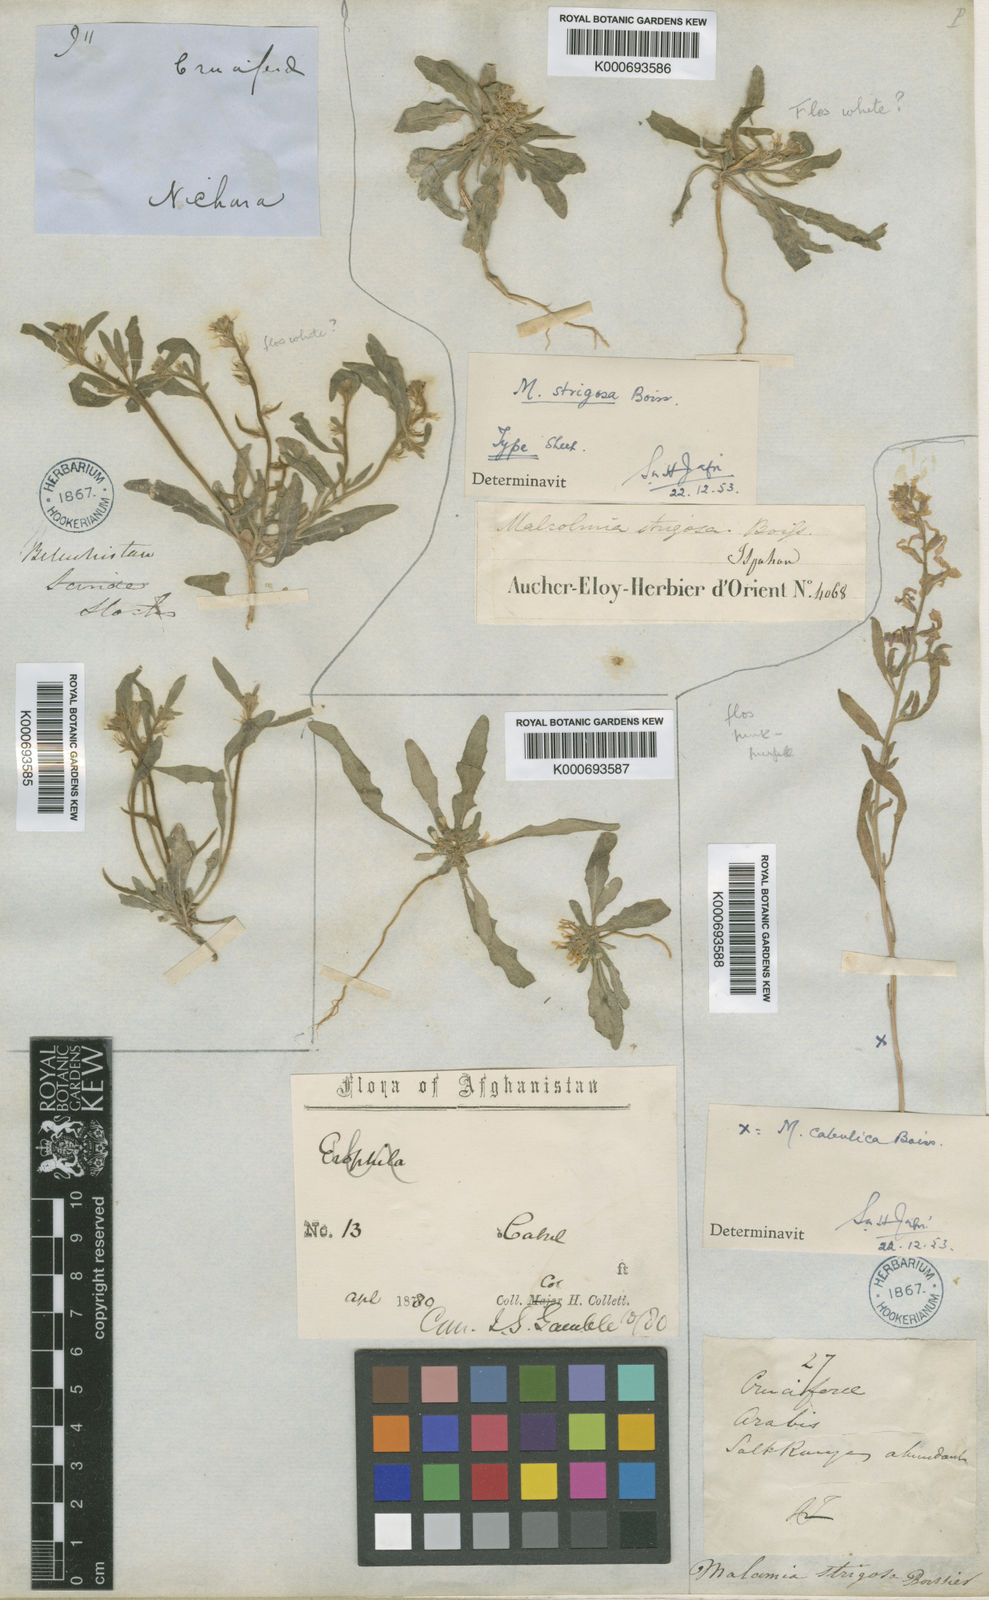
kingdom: Plantae
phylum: Tracheophyta
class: Magnoliopsida
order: Brassicales
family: Brassicaceae
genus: Strigosella
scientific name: Strigosella strigosa
